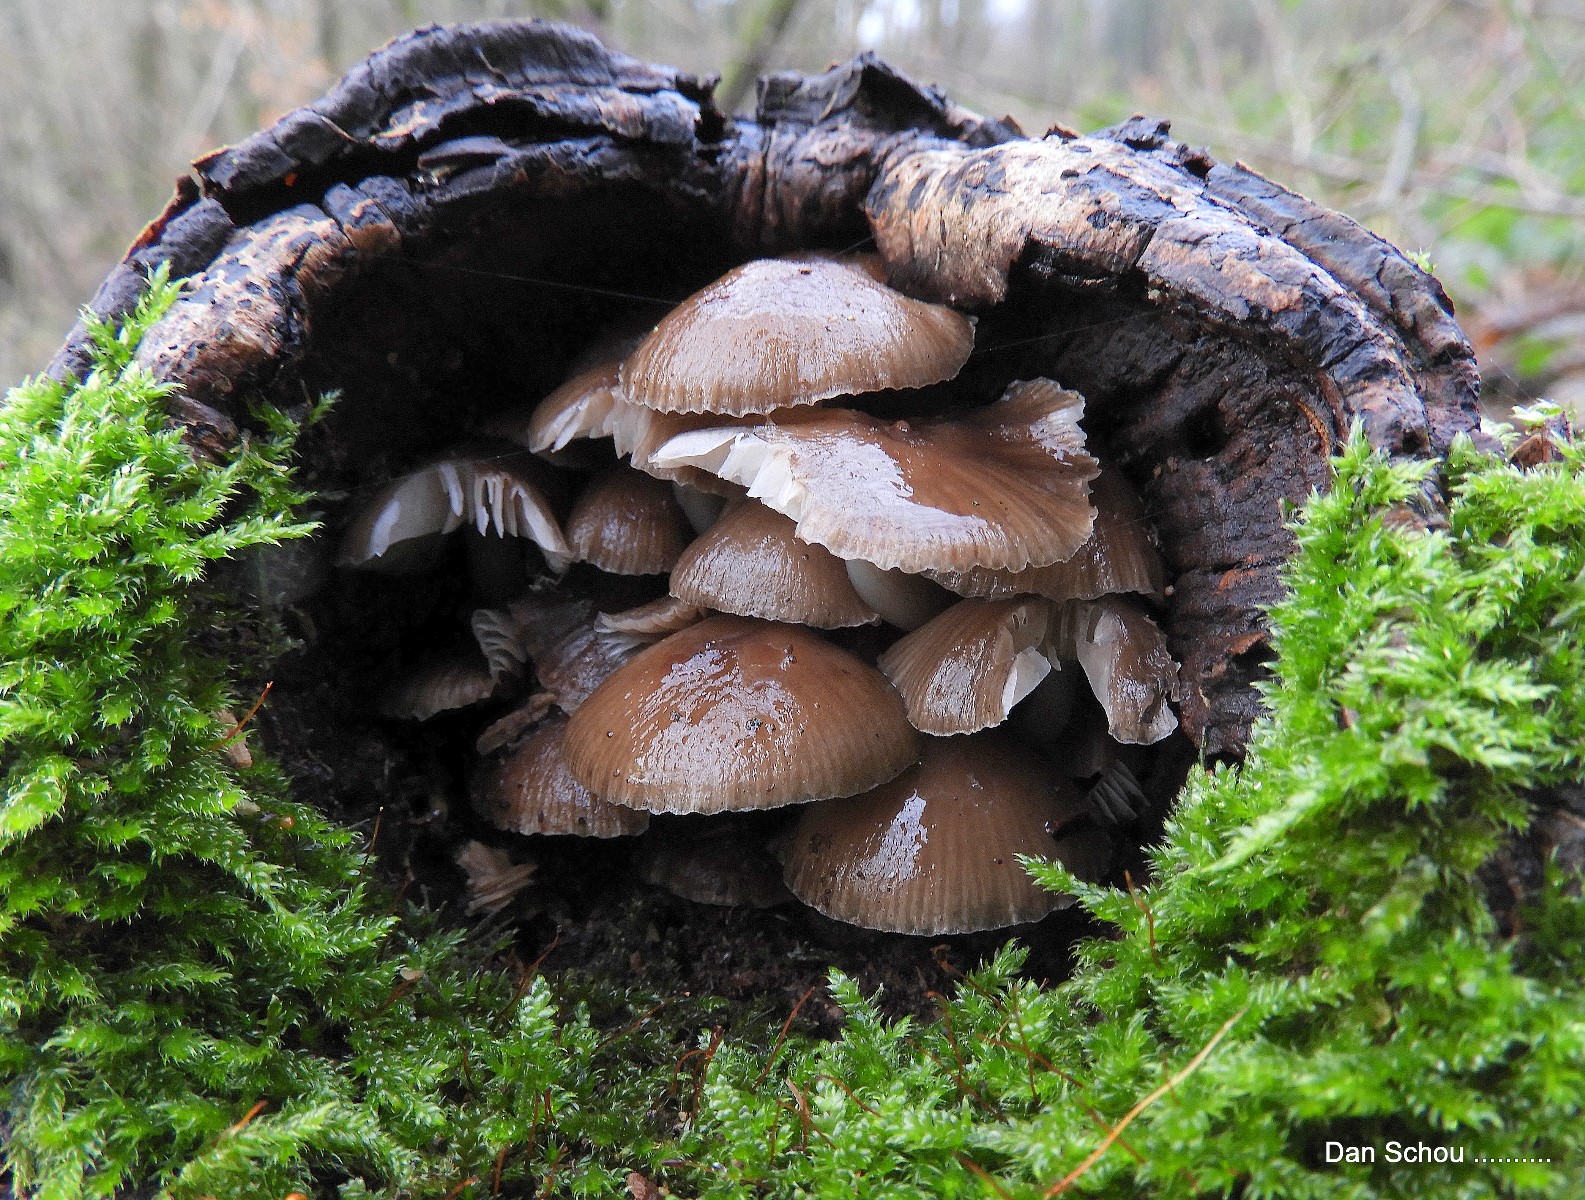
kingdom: Fungi
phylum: Basidiomycota
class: Agaricomycetes
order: Agaricales
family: Mycenaceae
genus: Mycena
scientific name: Mycena tintinnabulum
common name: vinter-huesvamp
